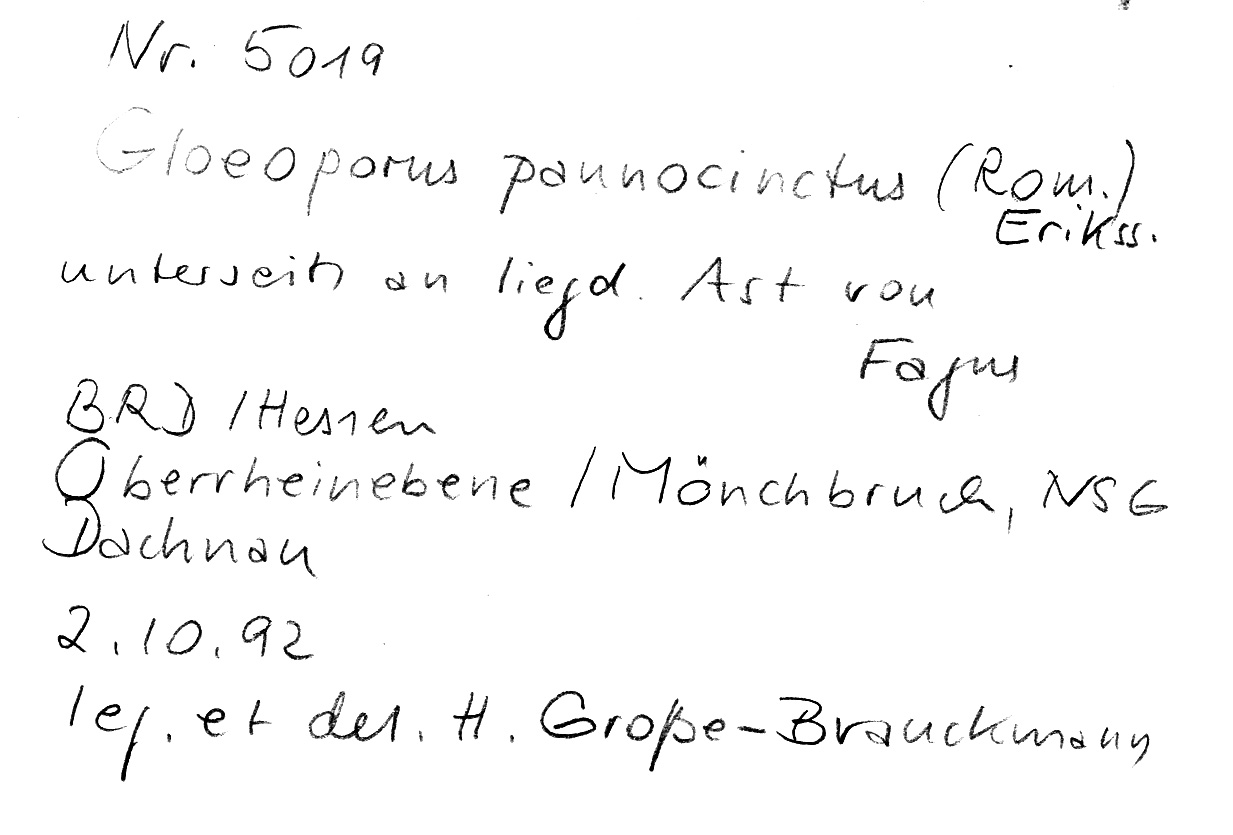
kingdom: Fungi
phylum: Basidiomycota
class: Agaricomycetes
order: Polyporales
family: Irpicaceae
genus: Gloeoporus
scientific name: Gloeoporus pannocinctus
